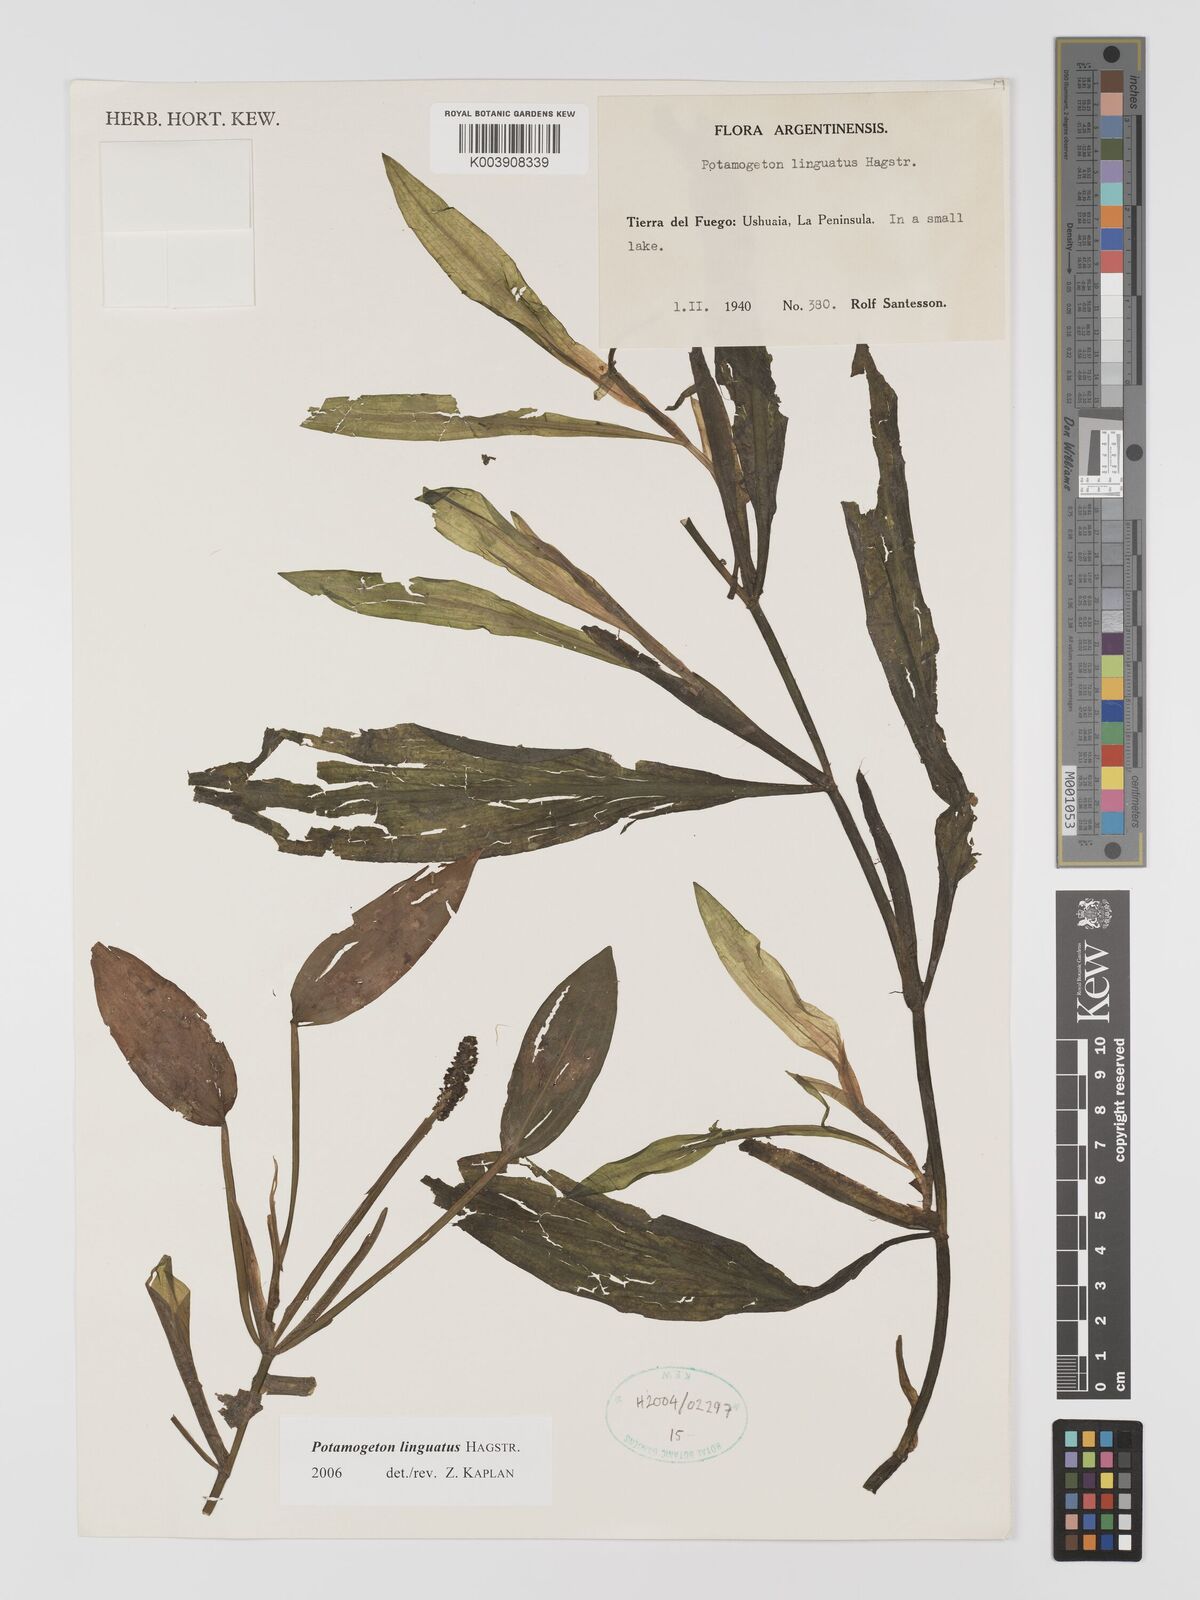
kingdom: Plantae
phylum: Tracheophyta
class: Liliopsida
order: Alismatales
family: Potamogetonaceae
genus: Potamogeton
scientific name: Potamogeton linguatus
